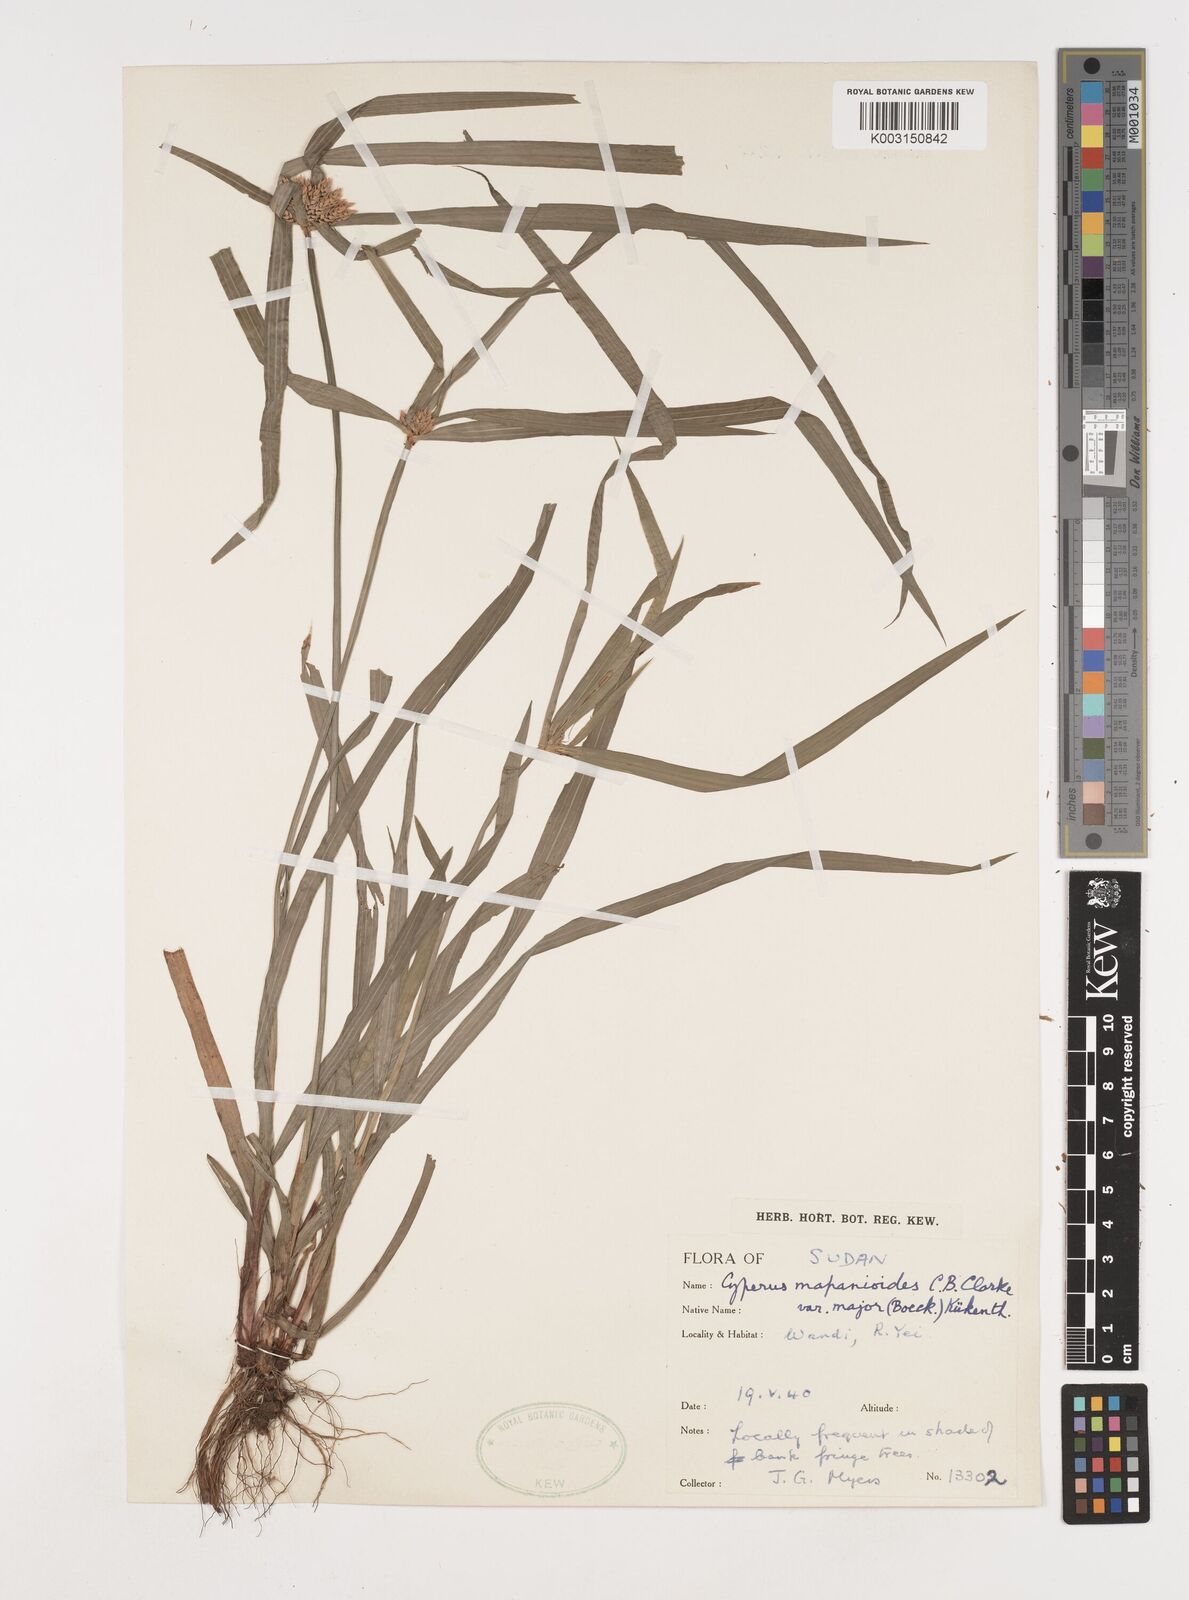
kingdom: Plantae
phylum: Tracheophyta
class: Liliopsida
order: Poales
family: Cyperaceae
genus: Cyperus
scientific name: Cyperus mapanioides
